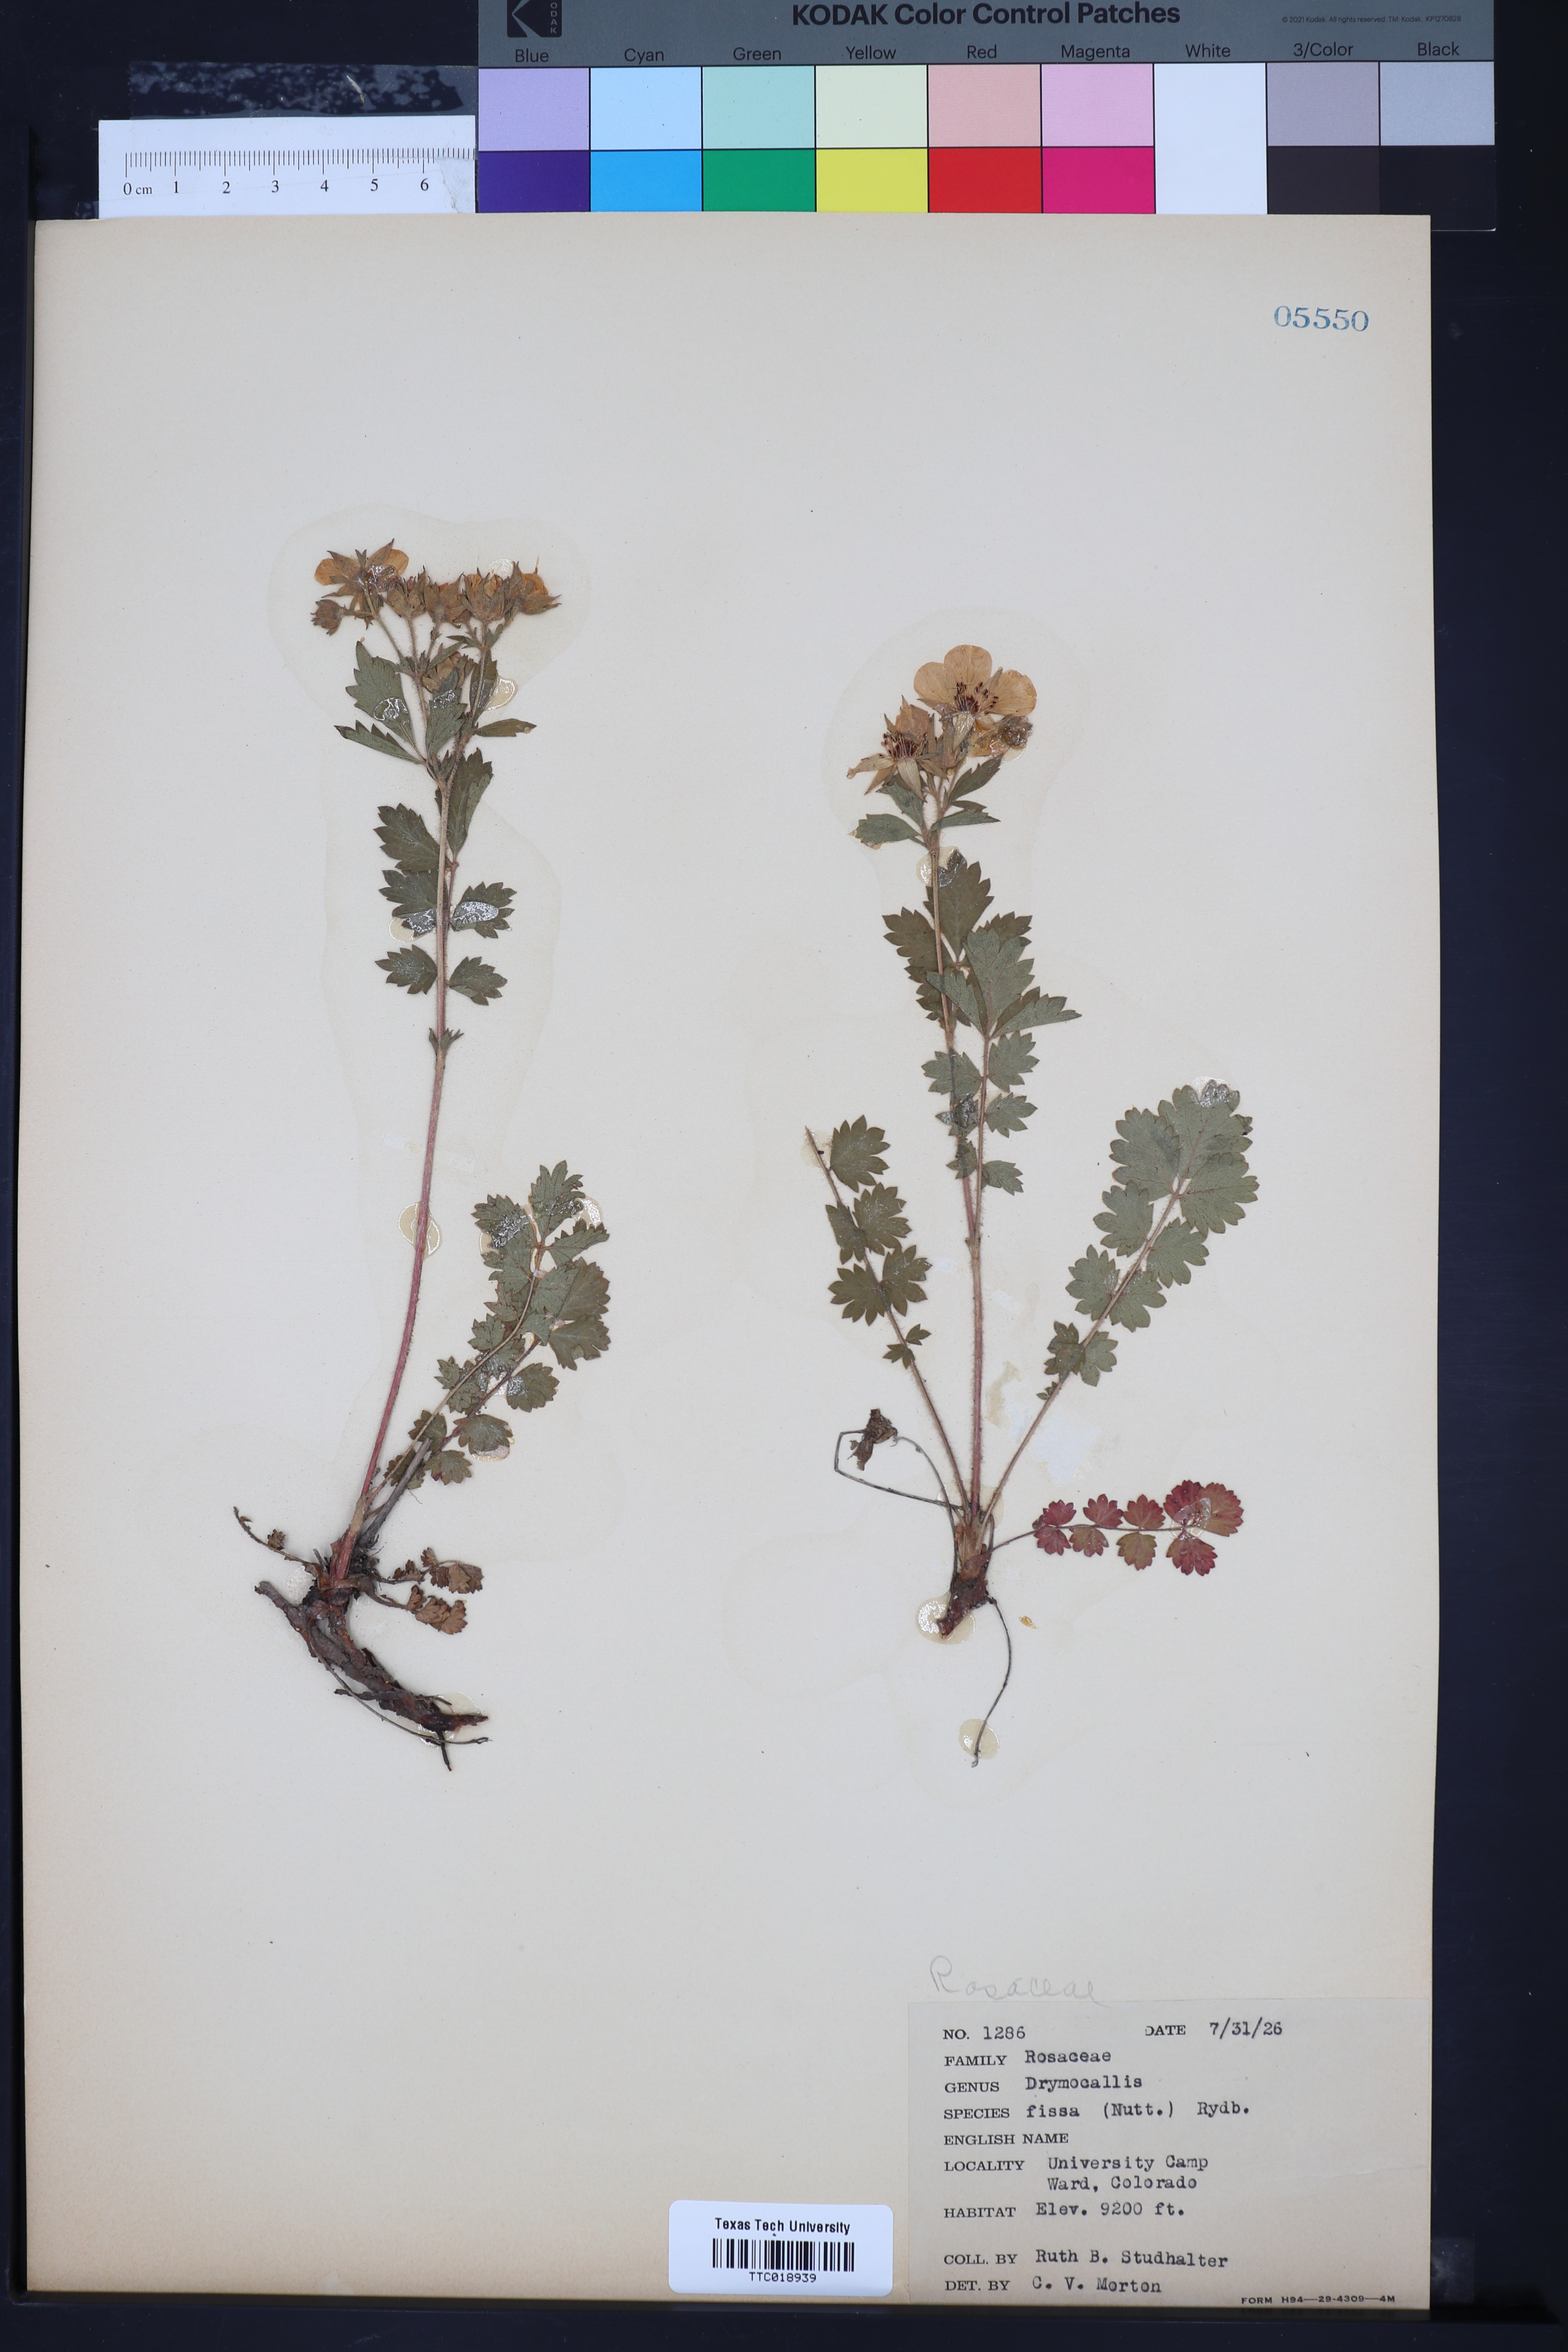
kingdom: Plantae
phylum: Tracheophyta
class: Magnoliopsida
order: Rosales
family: Rosaceae
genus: Drymocallis
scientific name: Drymocallis fissa
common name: Big-flowered cinquefoil
